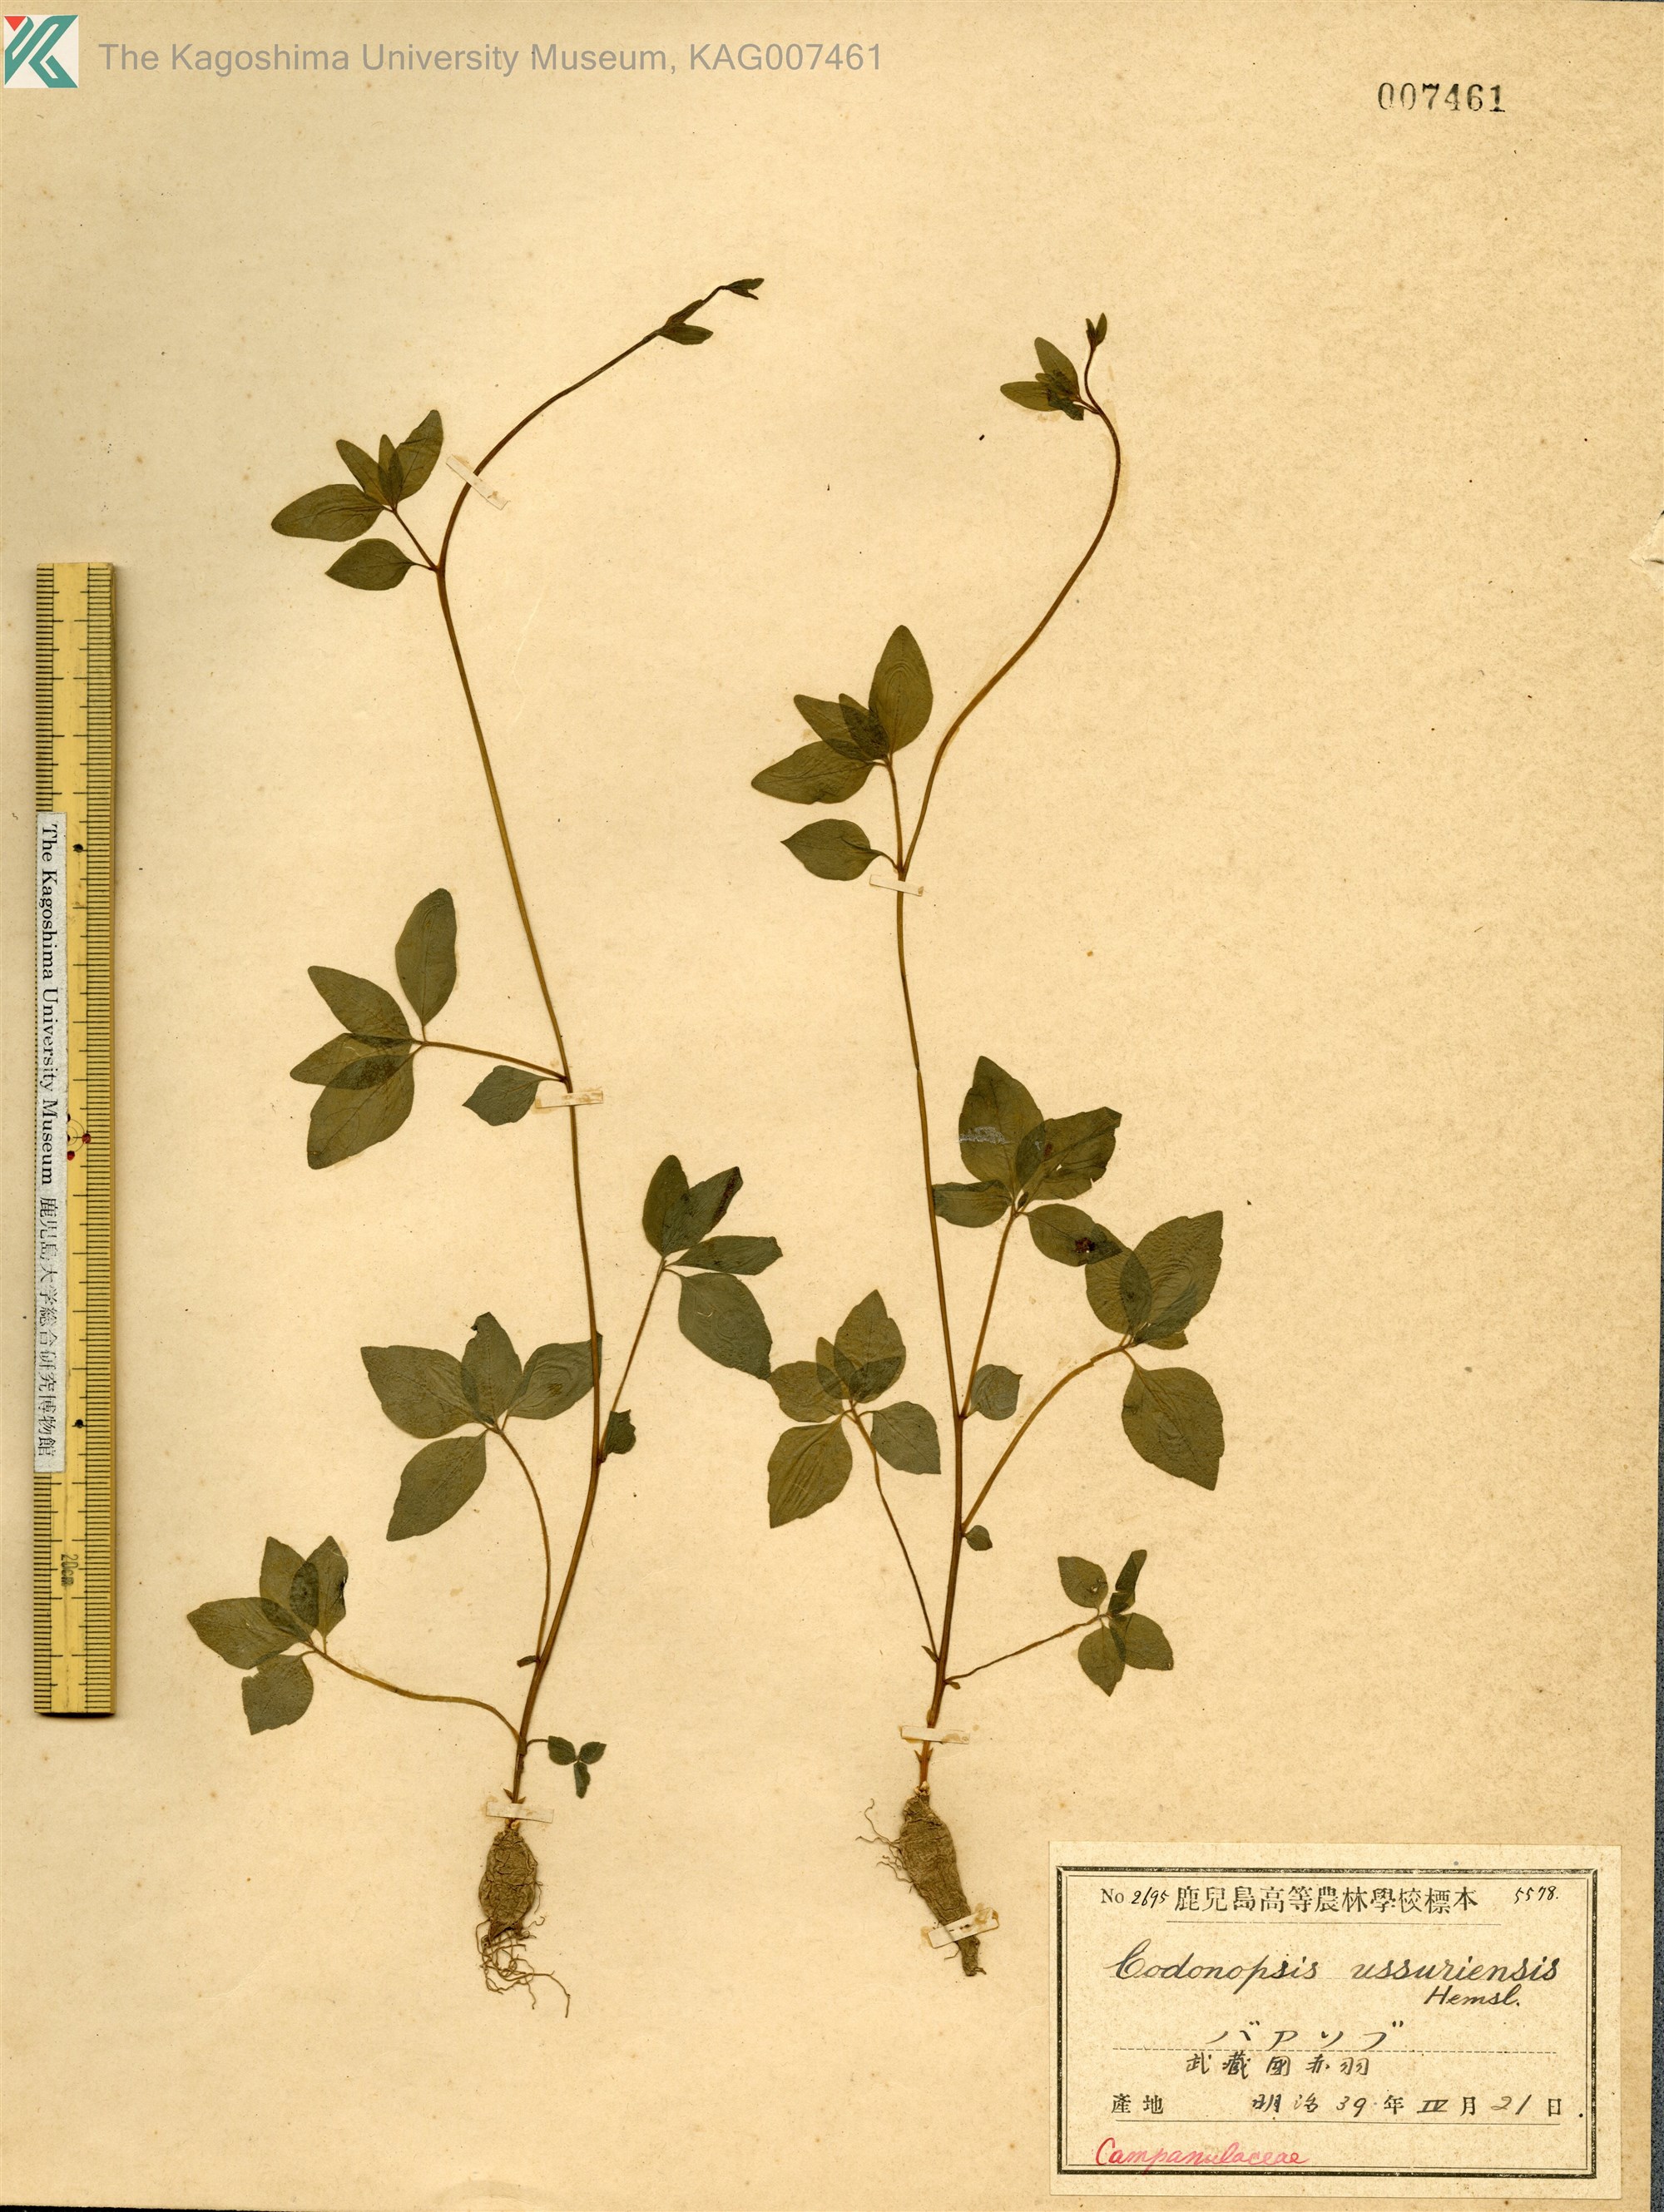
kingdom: Plantae
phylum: Tracheophyta
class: Magnoliopsida
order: Asterales
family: Campanulaceae
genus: Codonopsis
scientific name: Codonopsis ussuriensis
